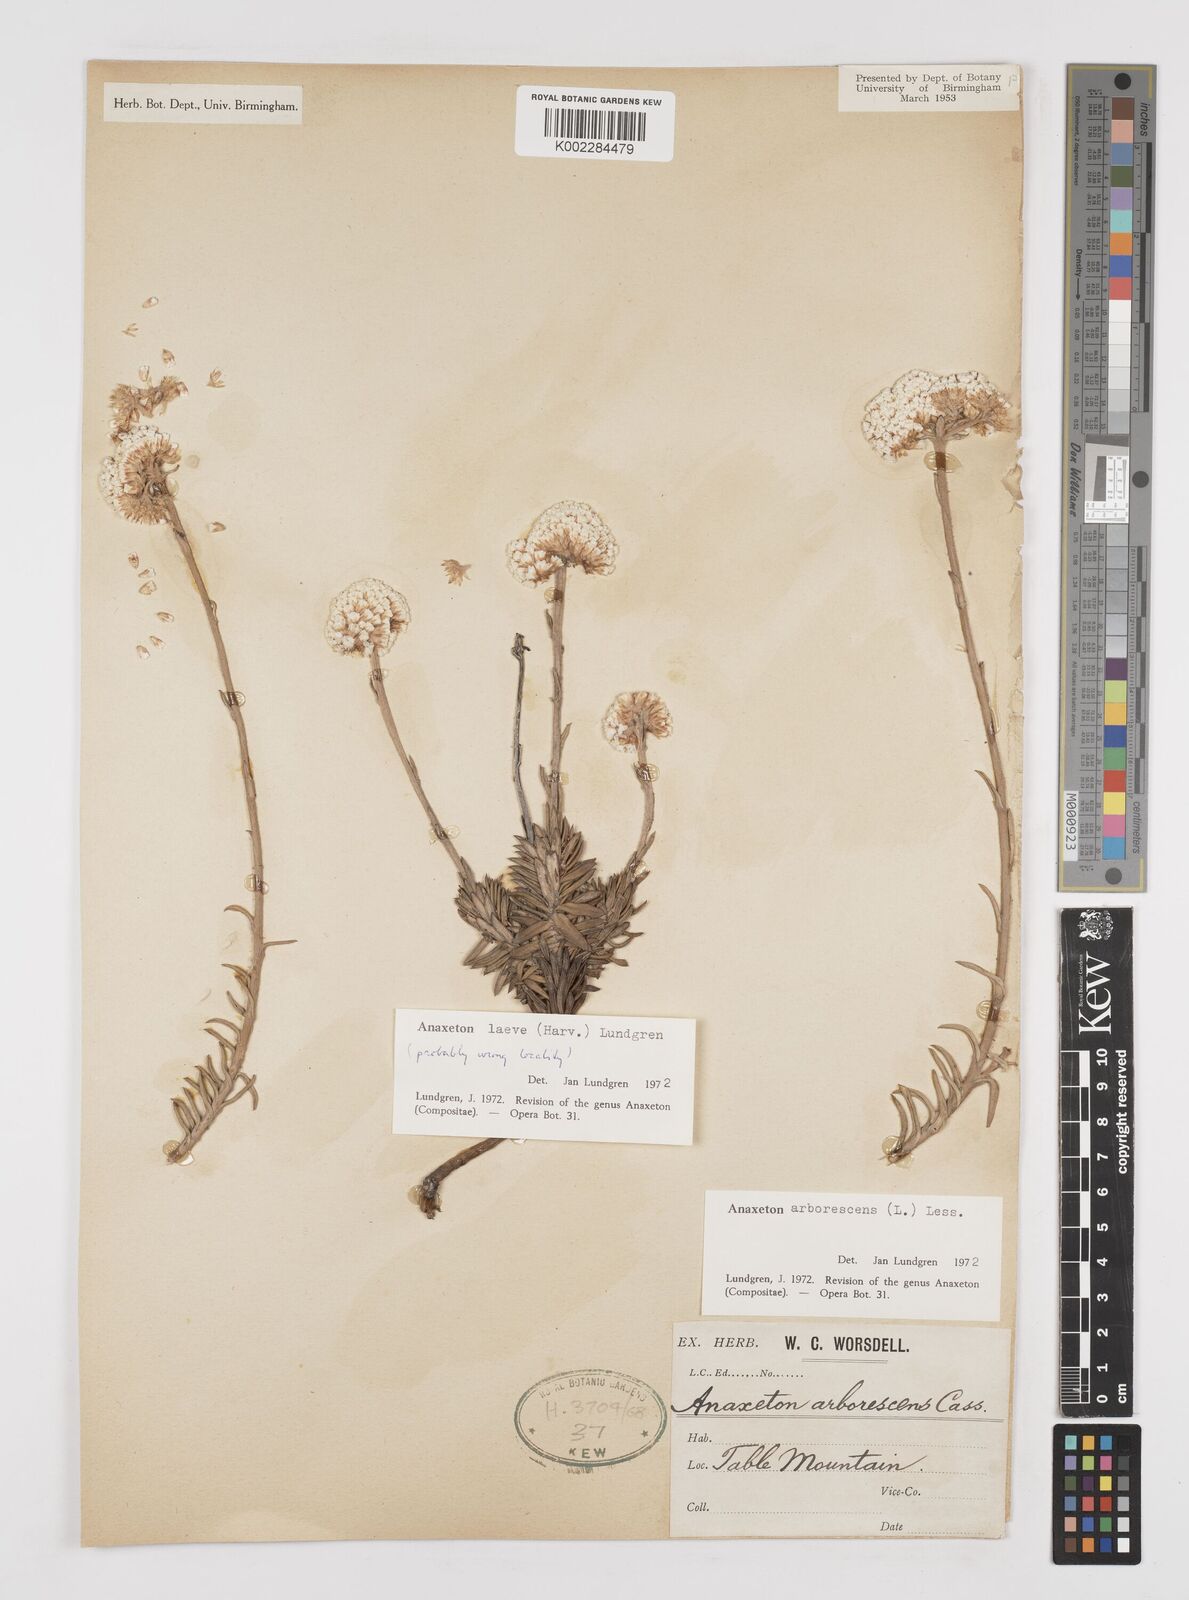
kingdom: Plantae
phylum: Tracheophyta
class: Magnoliopsida
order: Asterales
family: Asteraceae
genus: Anaxeton
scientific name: Anaxeton arborescens
